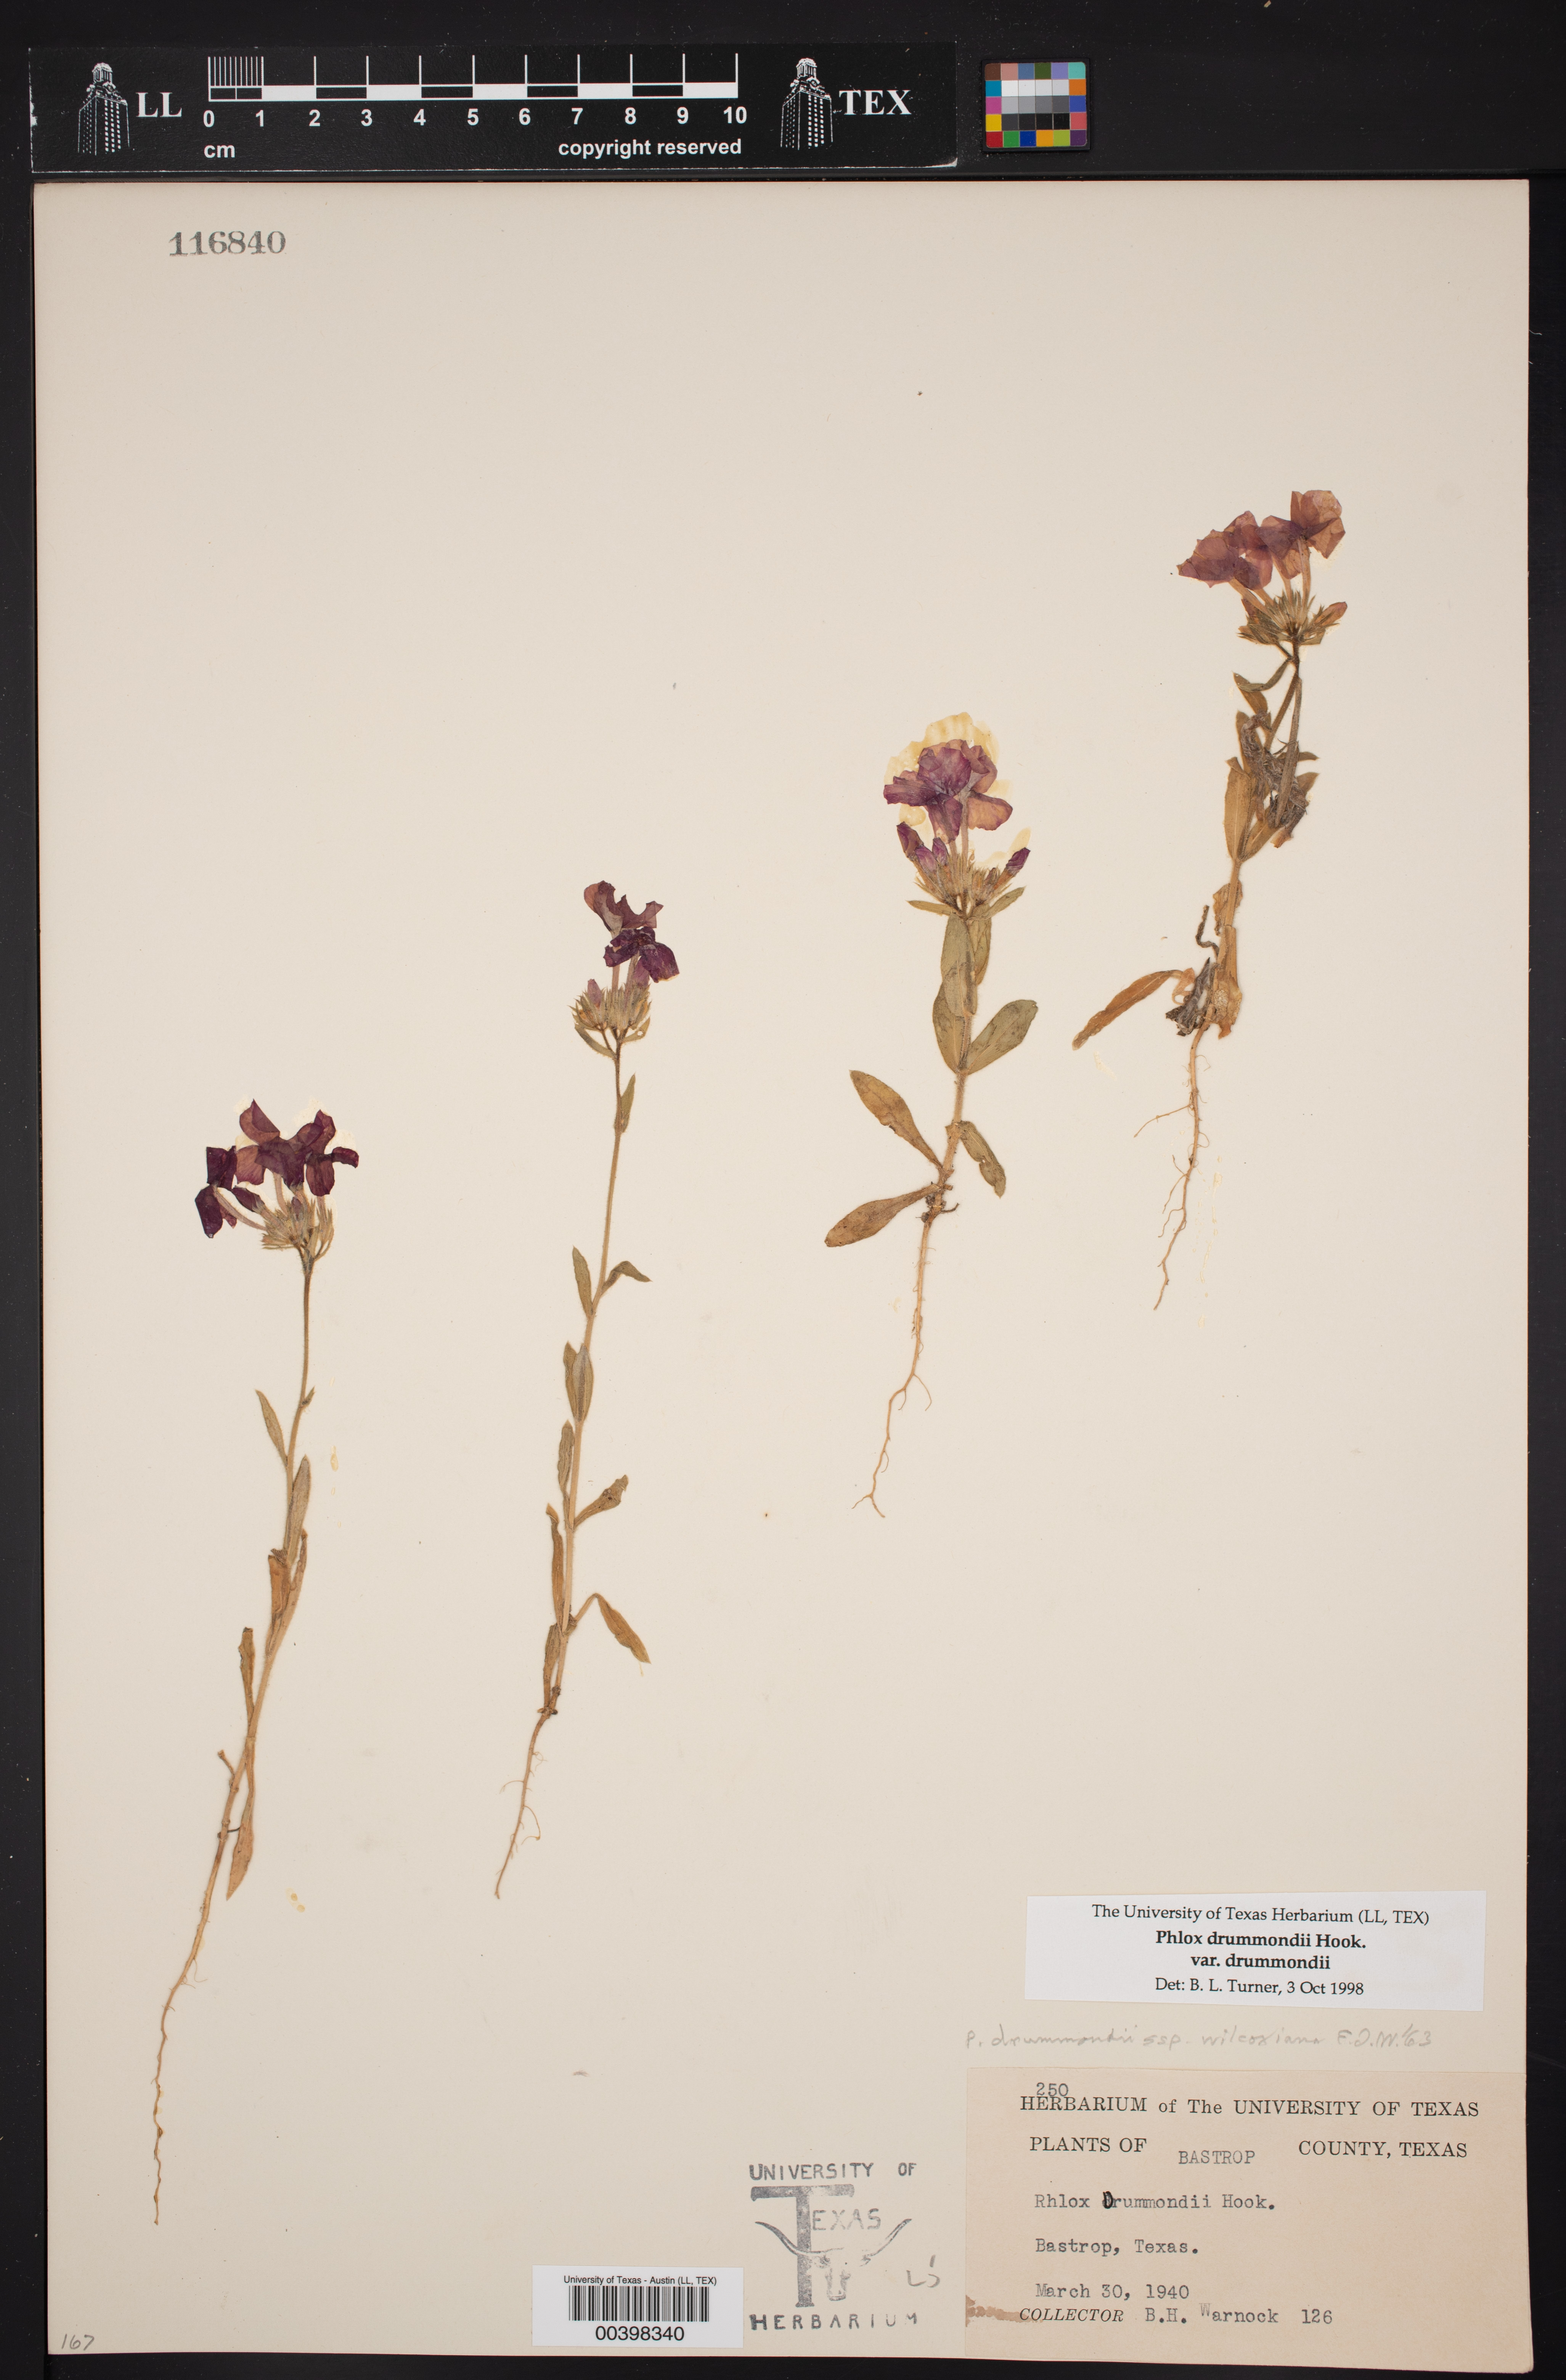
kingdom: Plantae
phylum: Tracheophyta
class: Magnoliopsida
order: Ericales
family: Polemoniaceae
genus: Phlox
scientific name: Phlox drummondii
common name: Drummond's phlox
